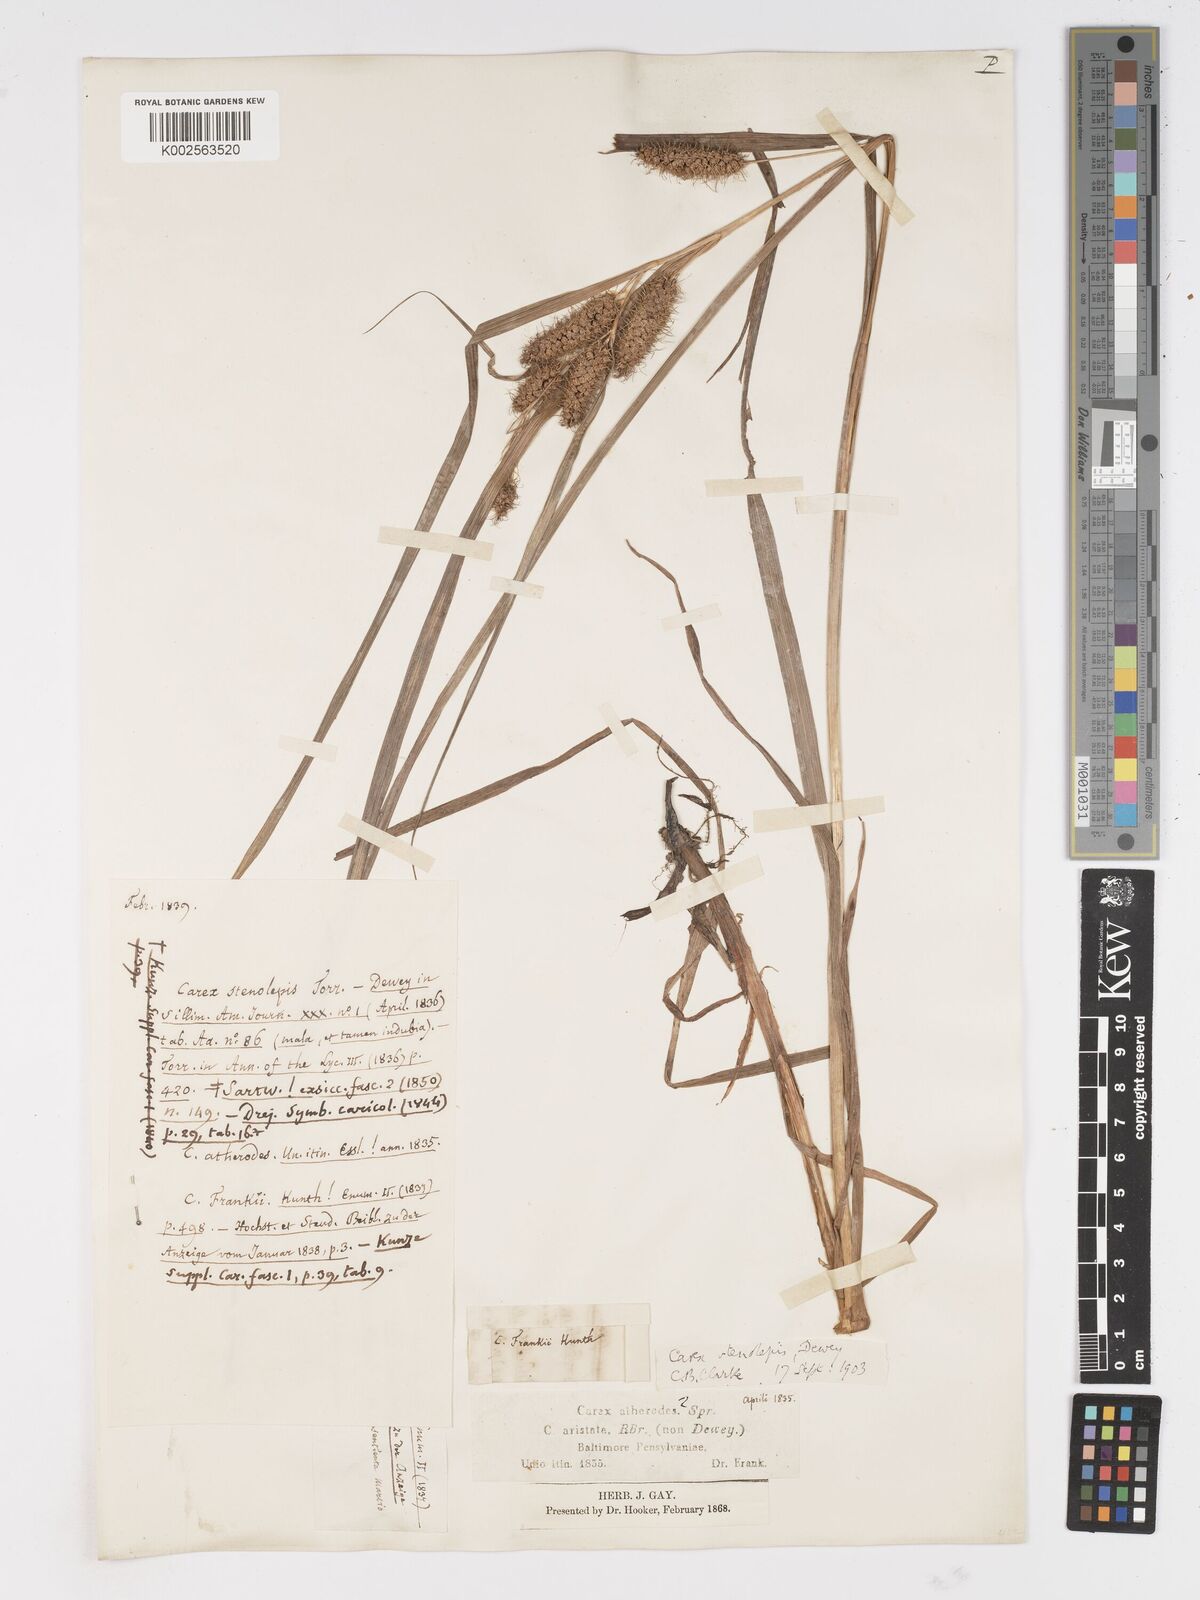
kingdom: Plantae
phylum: Tracheophyta
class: Liliopsida
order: Poales
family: Cyperaceae
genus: Carex
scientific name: Carex frankii
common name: Frank's sedge
